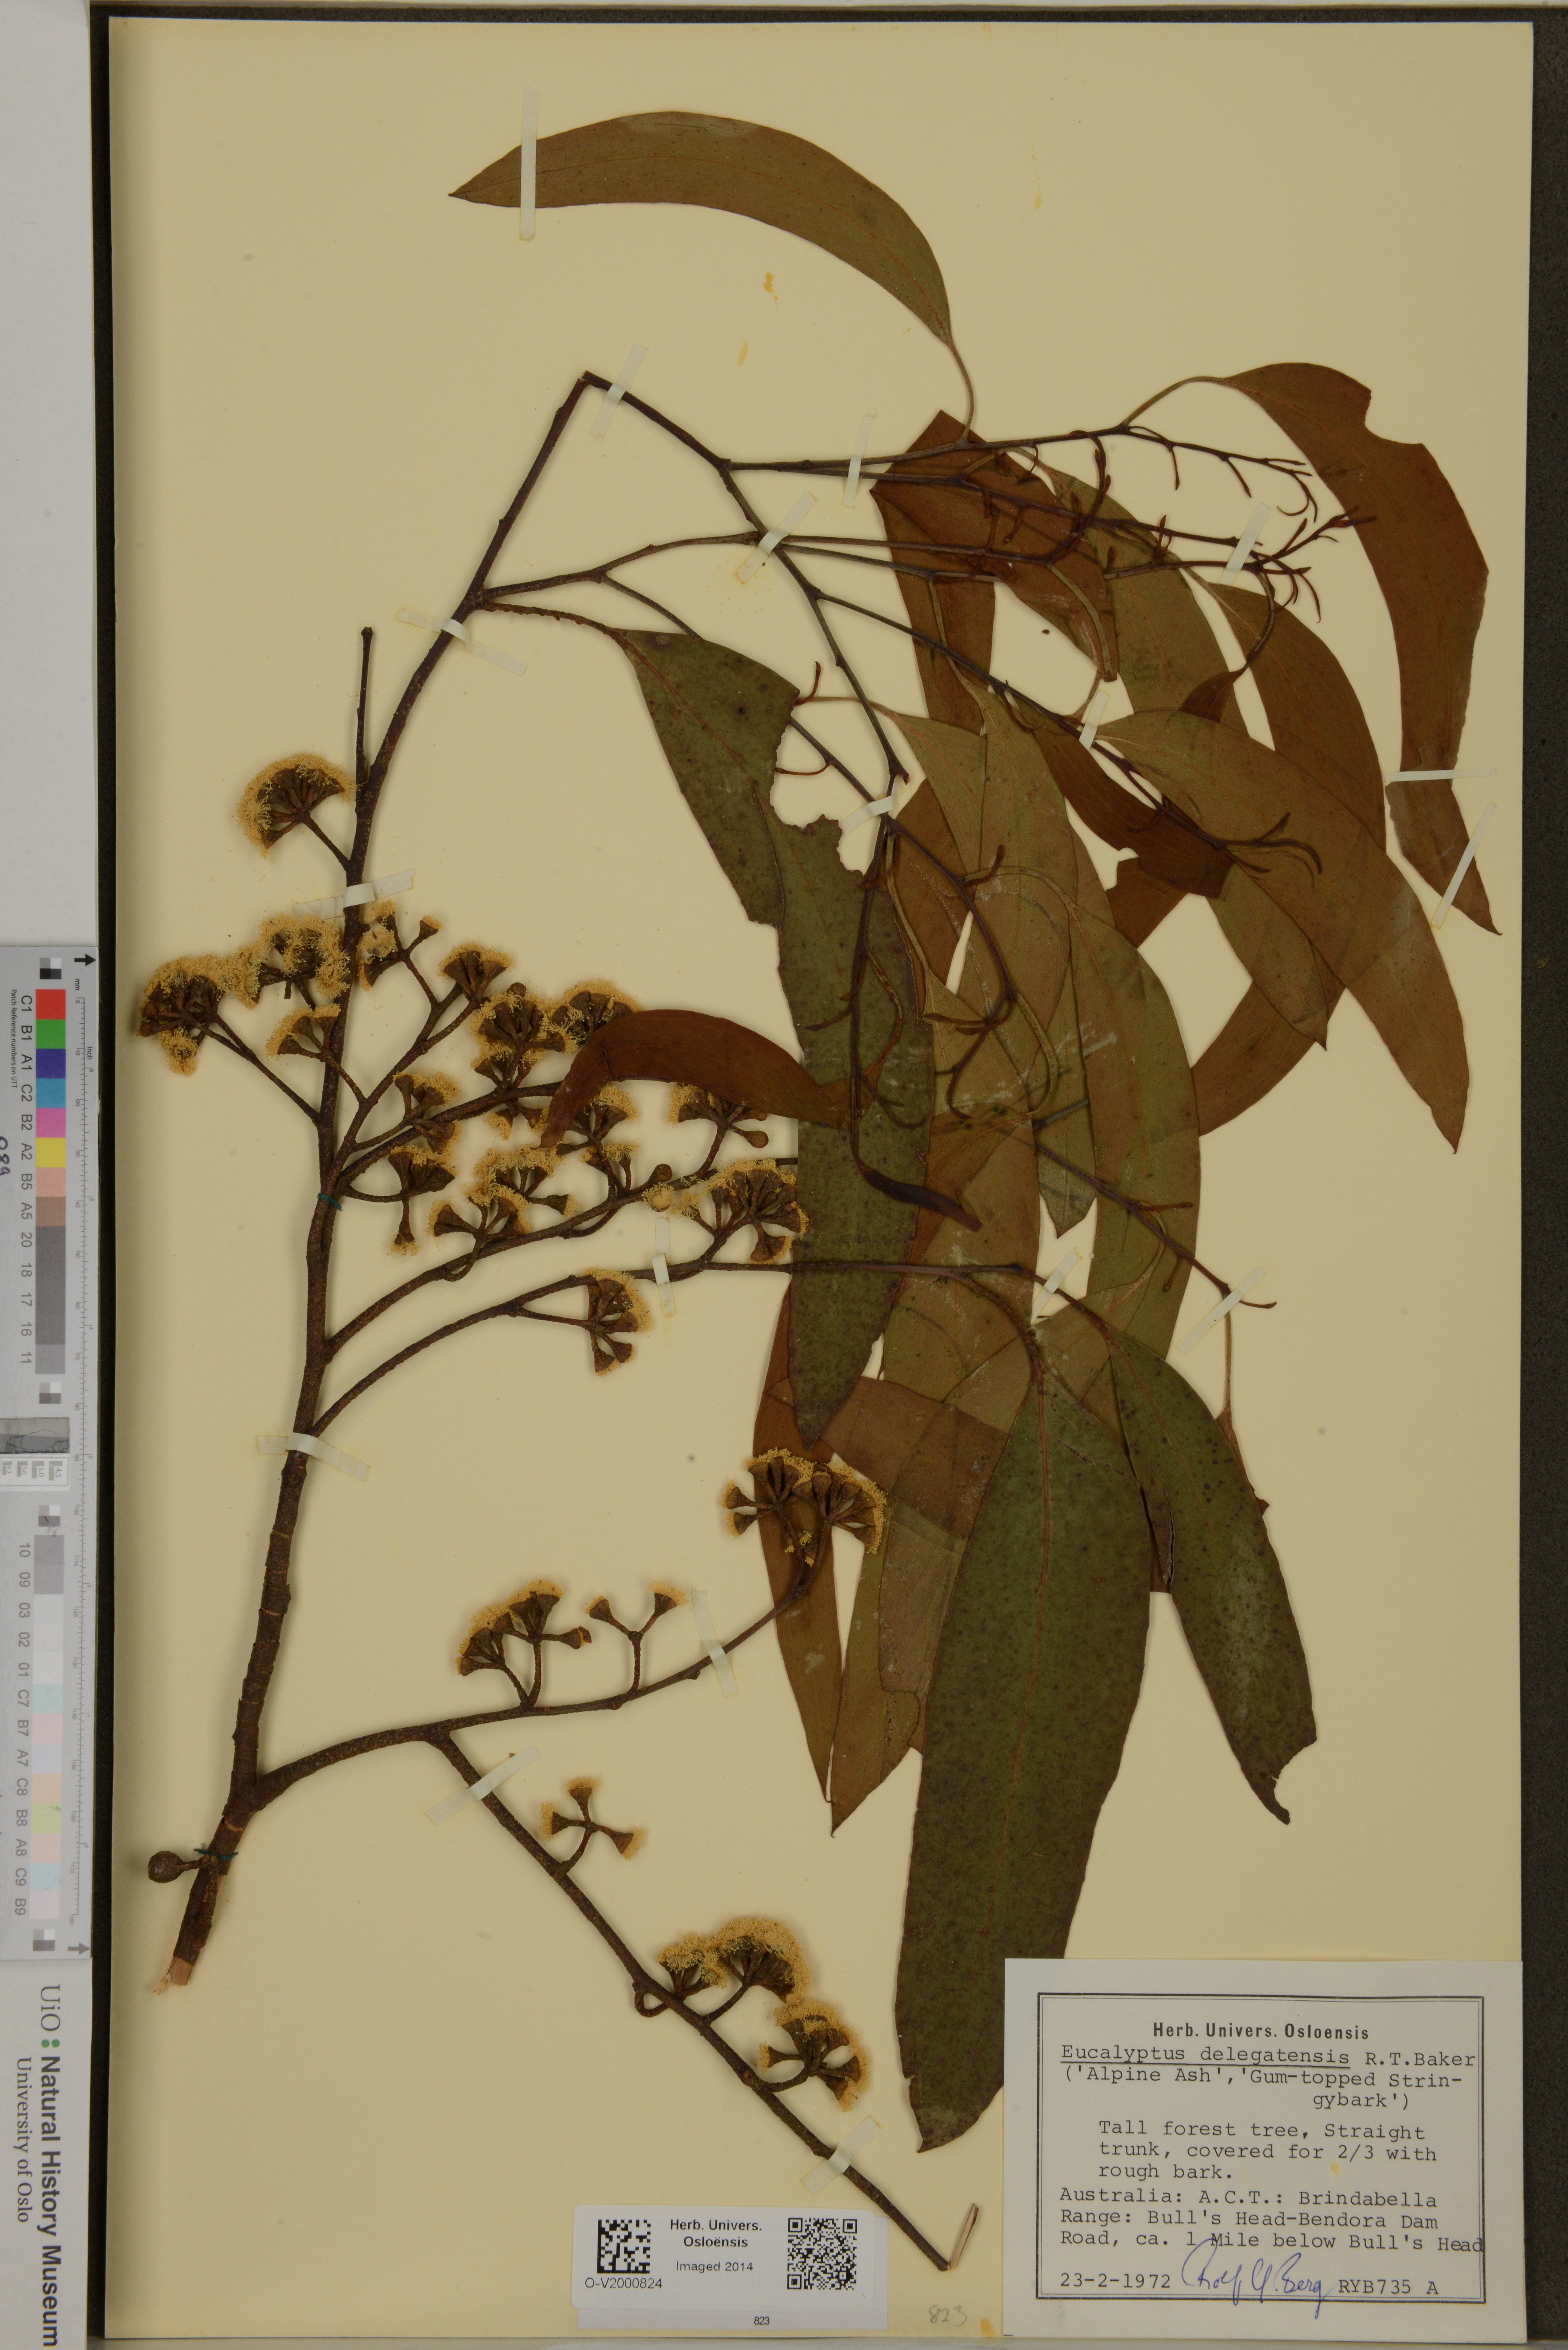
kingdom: Plantae
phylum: Tracheophyta
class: Magnoliopsida
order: Myrtales
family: Myrtaceae
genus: Eucalyptus
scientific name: Eucalyptus delegatensis
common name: Alpine-ash
